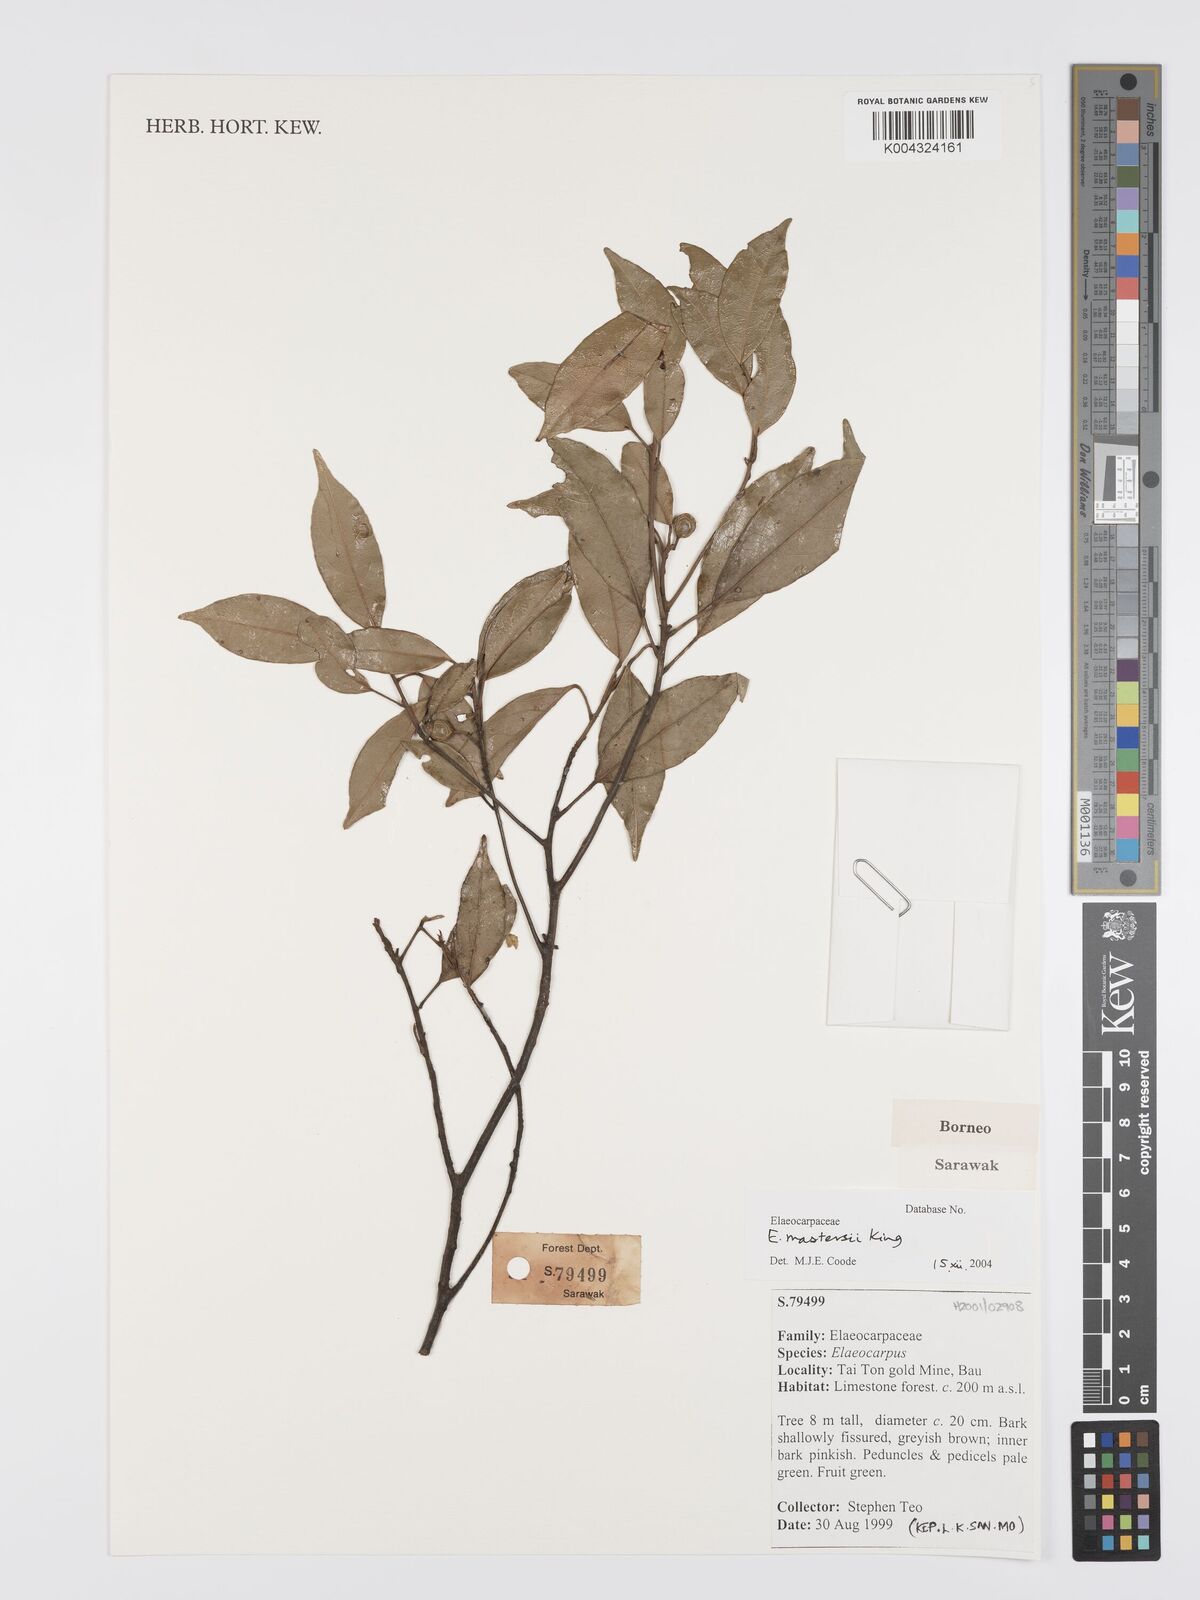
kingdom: Plantae
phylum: Tracheophyta
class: Magnoliopsida
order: Oxalidales
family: Elaeocarpaceae
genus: Elaeocarpus
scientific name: Elaeocarpus mastersii
